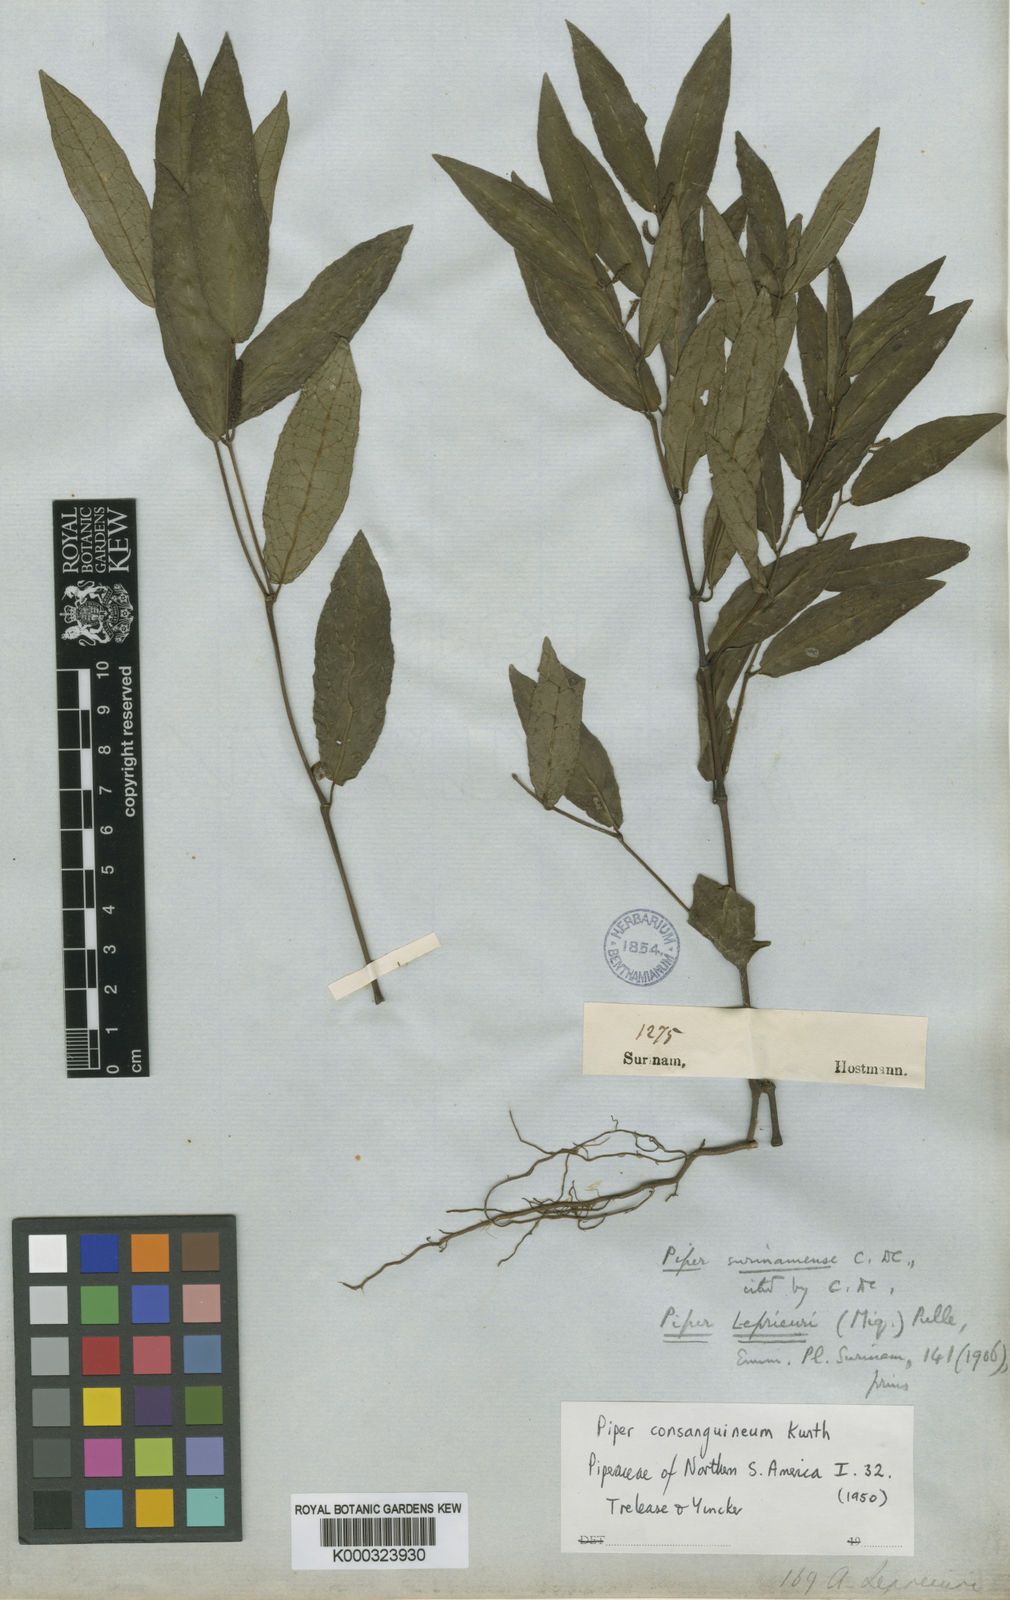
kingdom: Plantae
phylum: Tracheophyta
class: Magnoliopsida
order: Piperales
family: Piperaceae
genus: Piper
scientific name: Piper consanguineum
